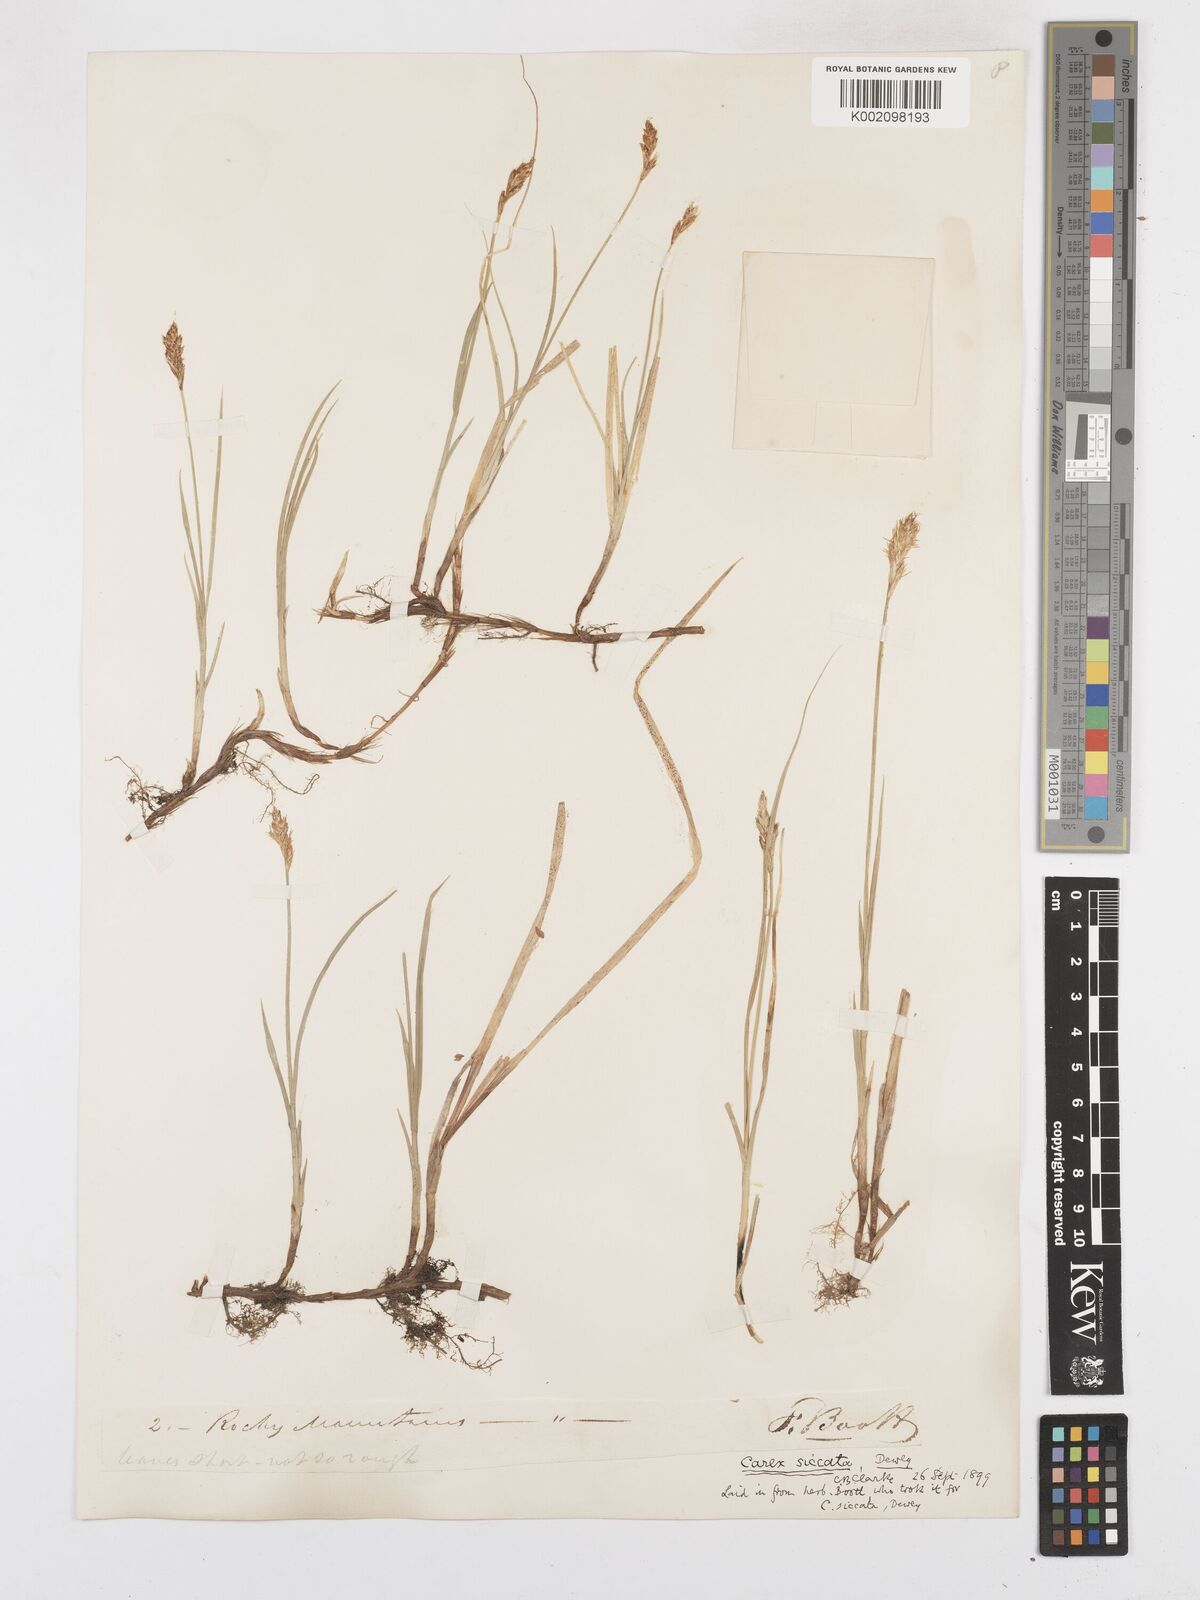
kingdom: Plantae
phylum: Tracheophyta
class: Liliopsida
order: Poales
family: Cyperaceae
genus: Carex
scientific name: Carex foenea
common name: Bronze sedge
